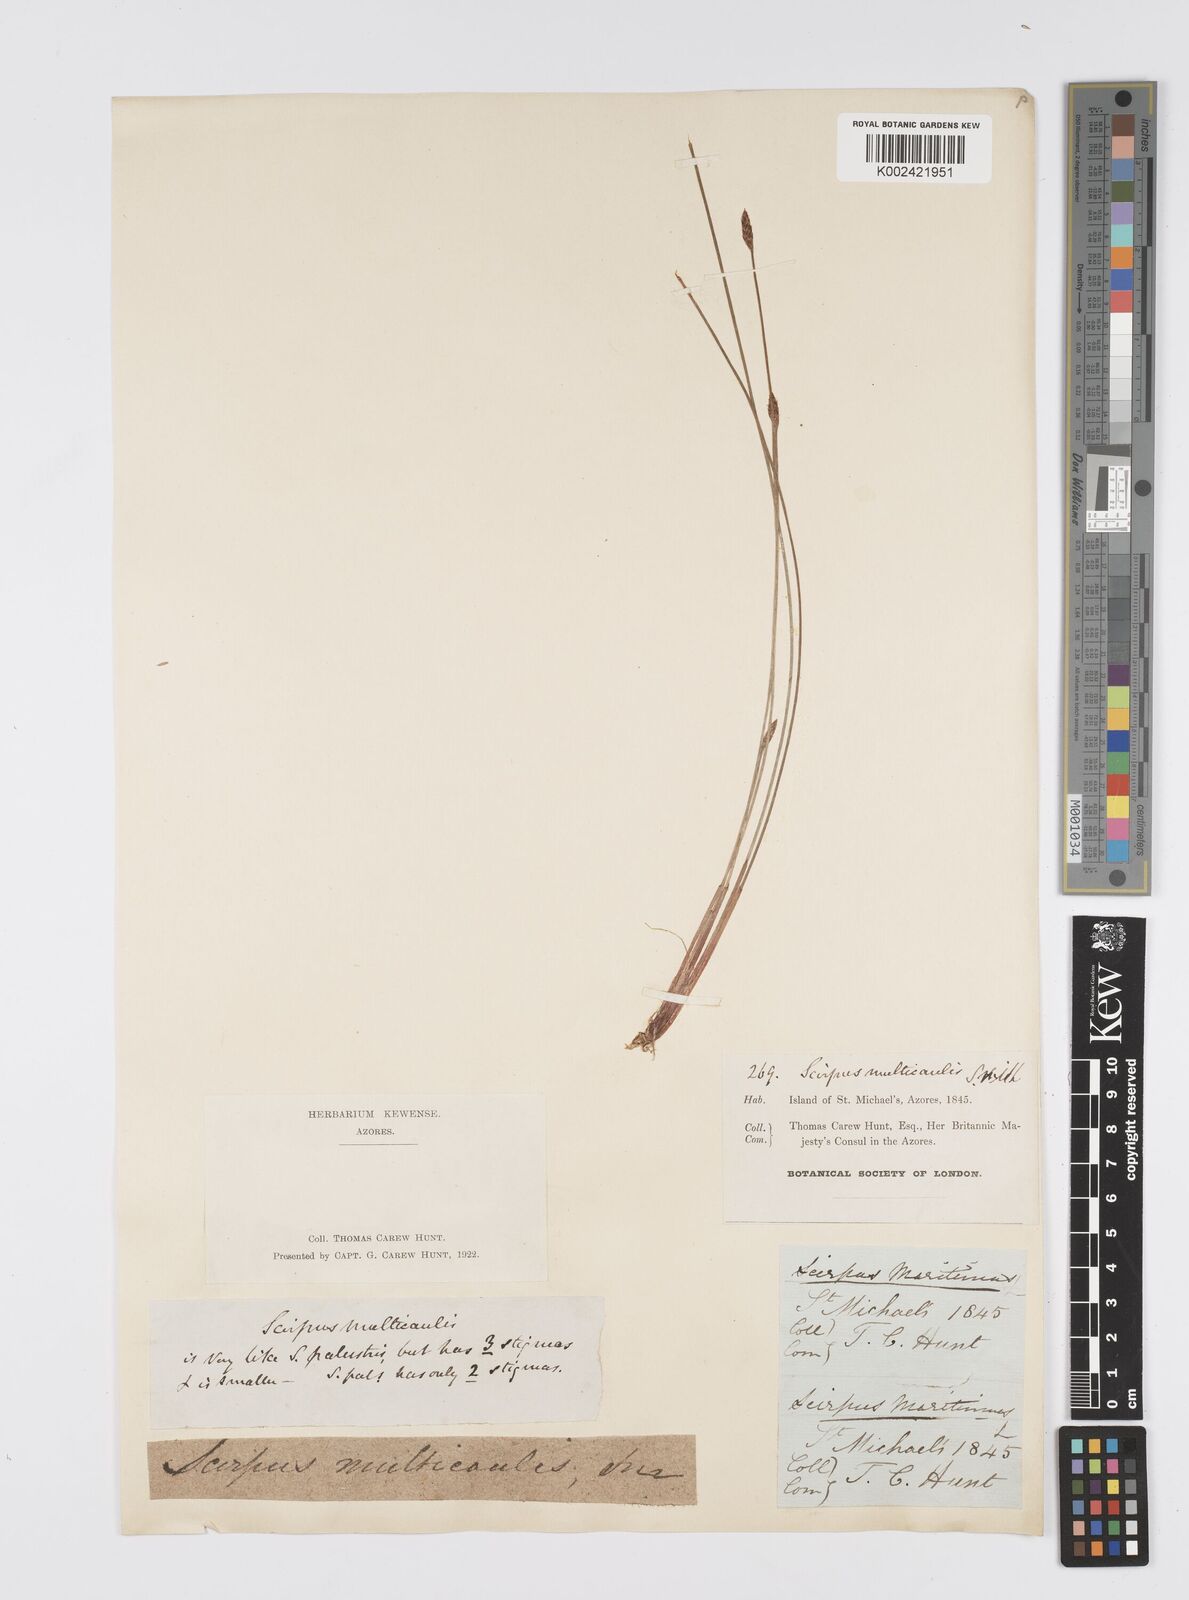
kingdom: Plantae
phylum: Tracheophyta
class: Liliopsida
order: Poales
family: Cyperaceae
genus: Eleocharis
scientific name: Eleocharis multicaulis
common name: Many-stalked spike-rush
